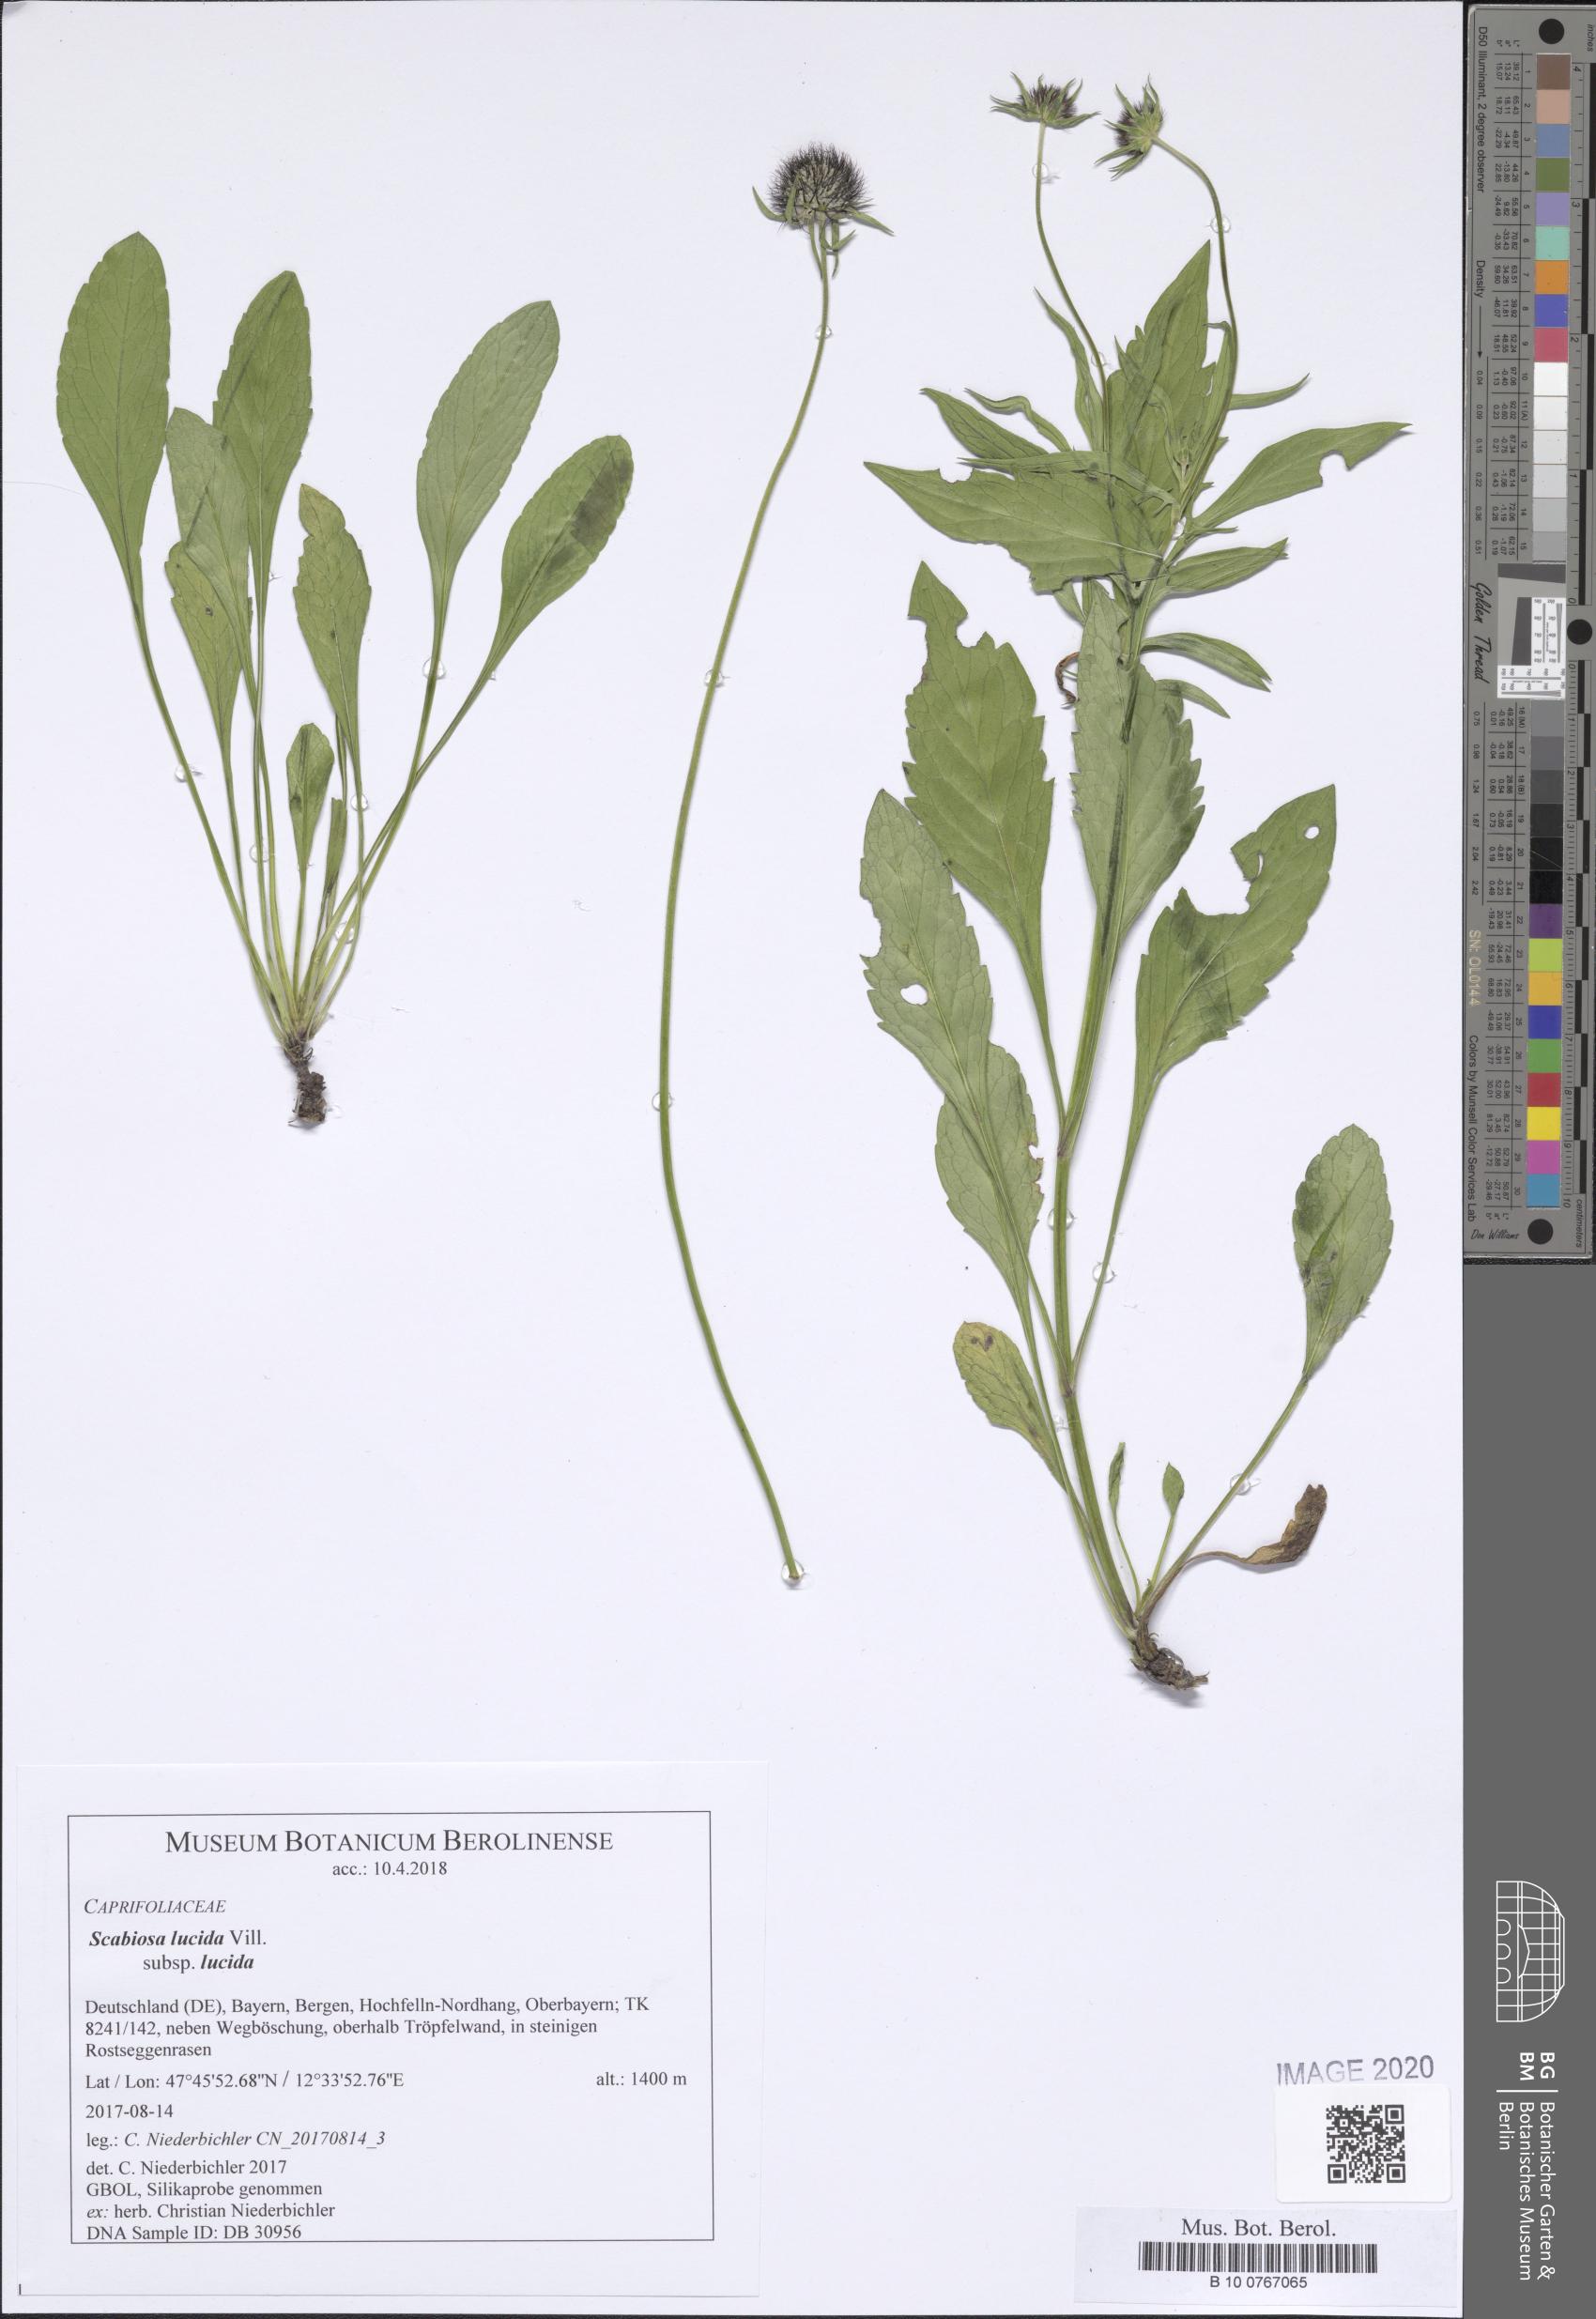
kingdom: Plantae
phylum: Tracheophyta
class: Magnoliopsida
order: Dipsacales
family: Caprifoliaceae
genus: Scabiosa
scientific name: Scabiosa lucida
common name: Shining scabious
